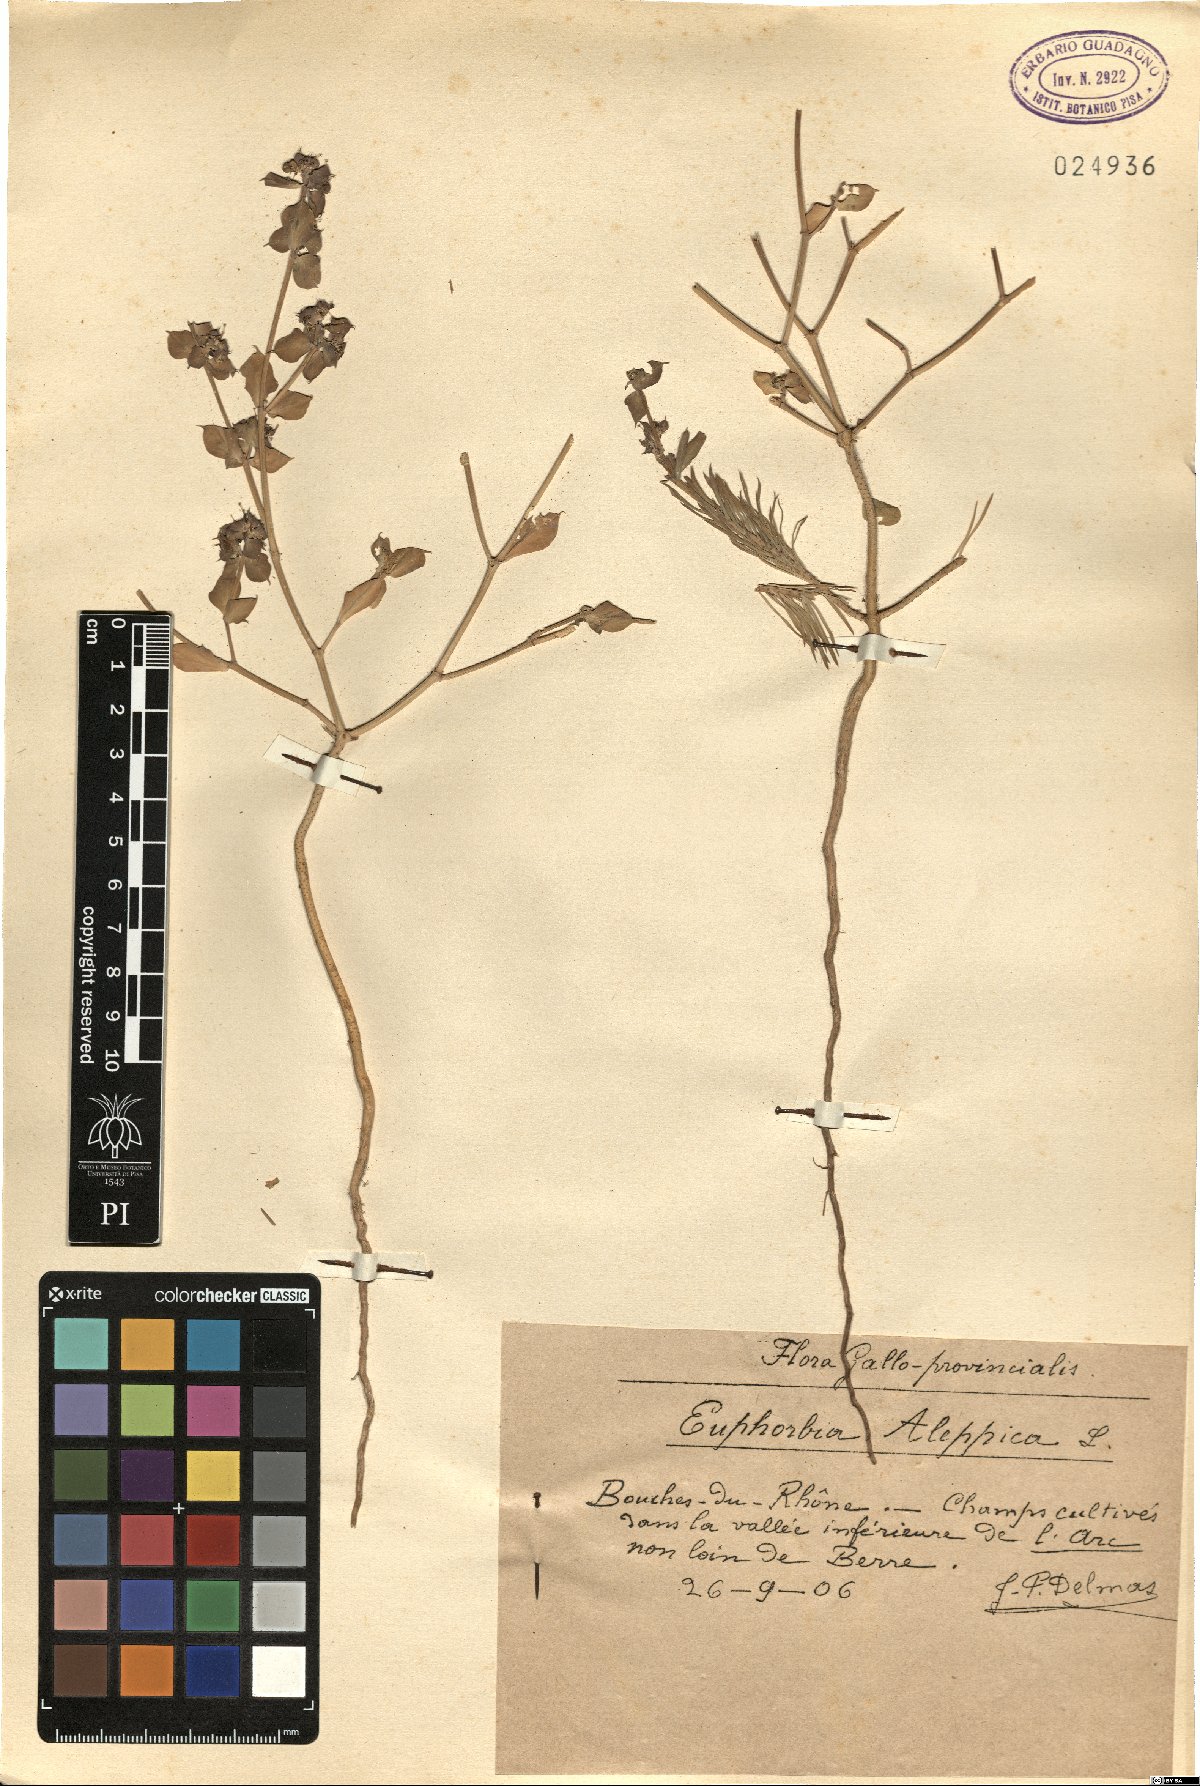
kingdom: Plantae
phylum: Tracheophyta
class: Magnoliopsida
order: Malpighiales
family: Euphorbiaceae
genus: Euphorbia
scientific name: Euphorbia aleppica
